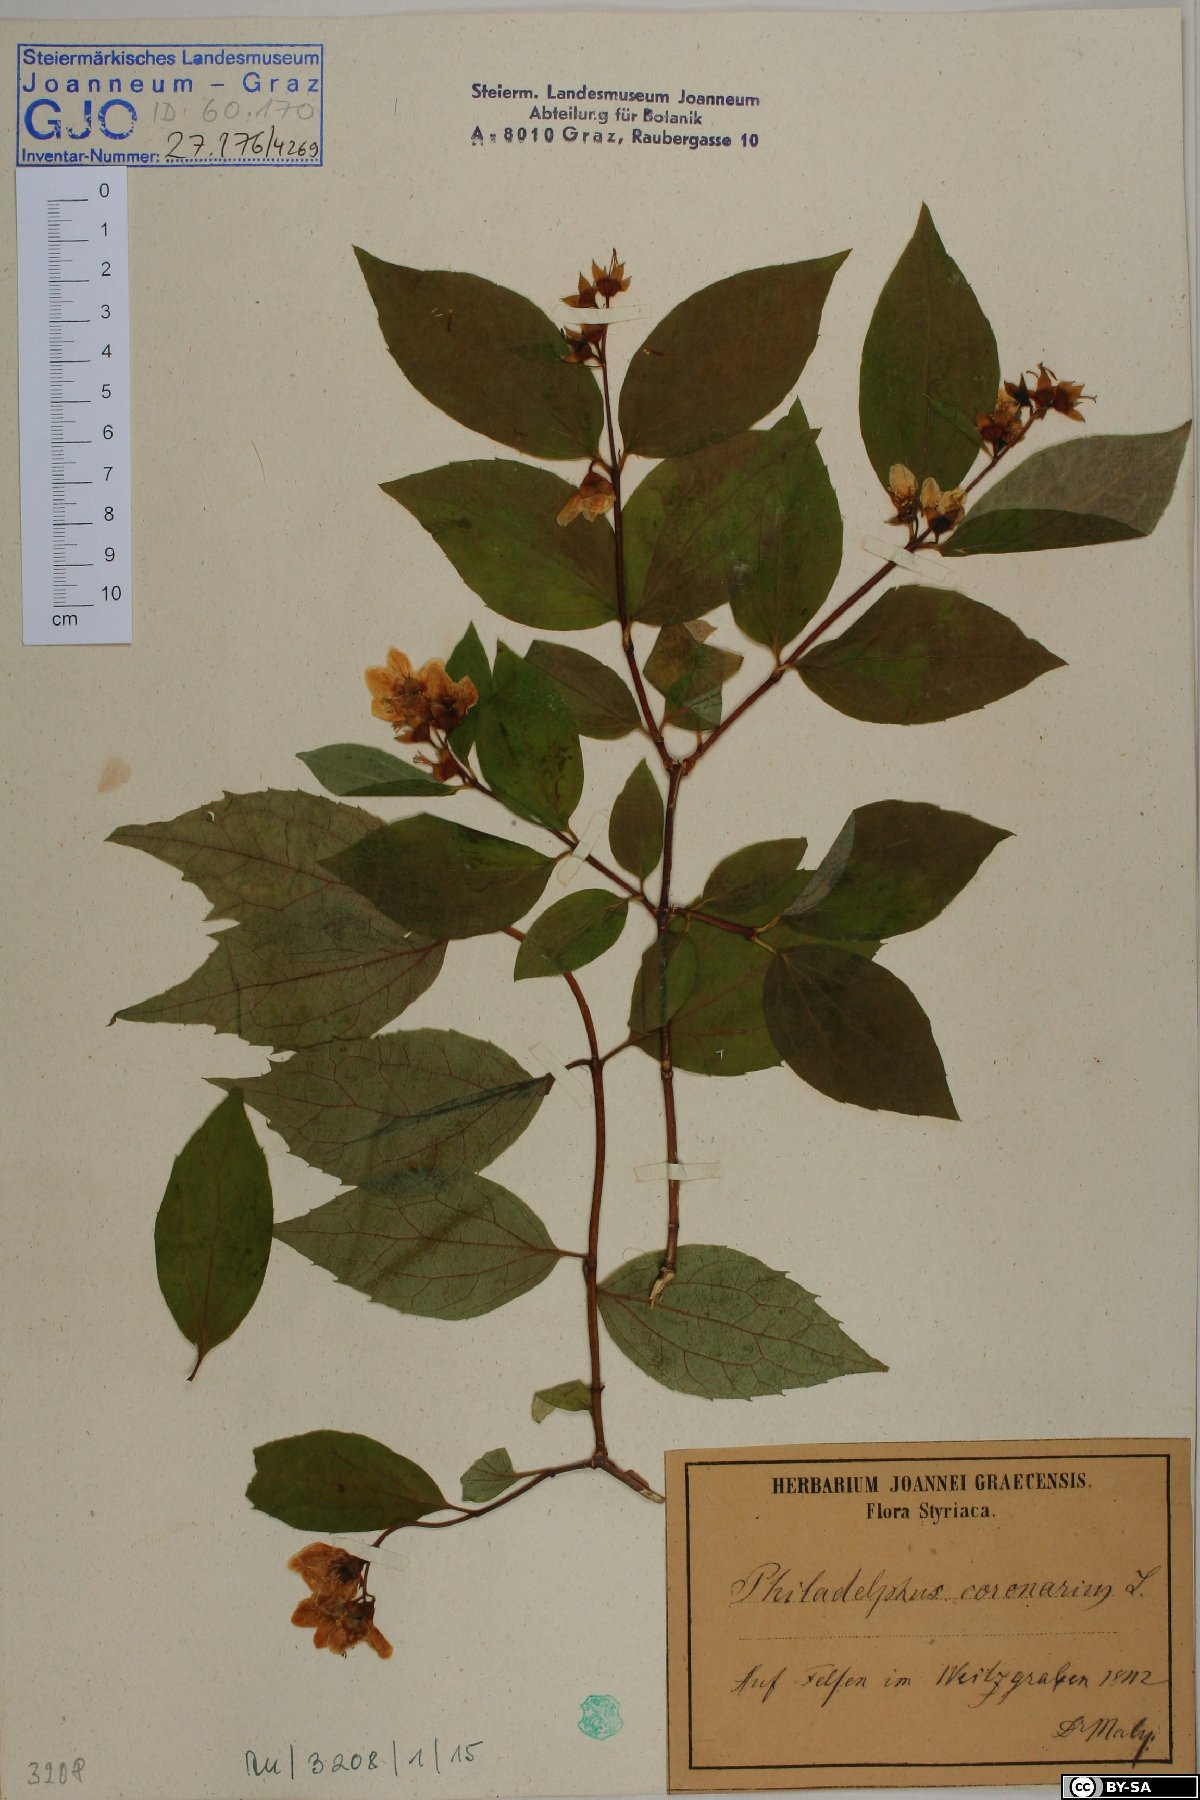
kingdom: Plantae
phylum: Tracheophyta
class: Magnoliopsida
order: Cornales
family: Hydrangeaceae
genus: Philadelphus
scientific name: Philadelphus coronarius
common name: Mock orange
